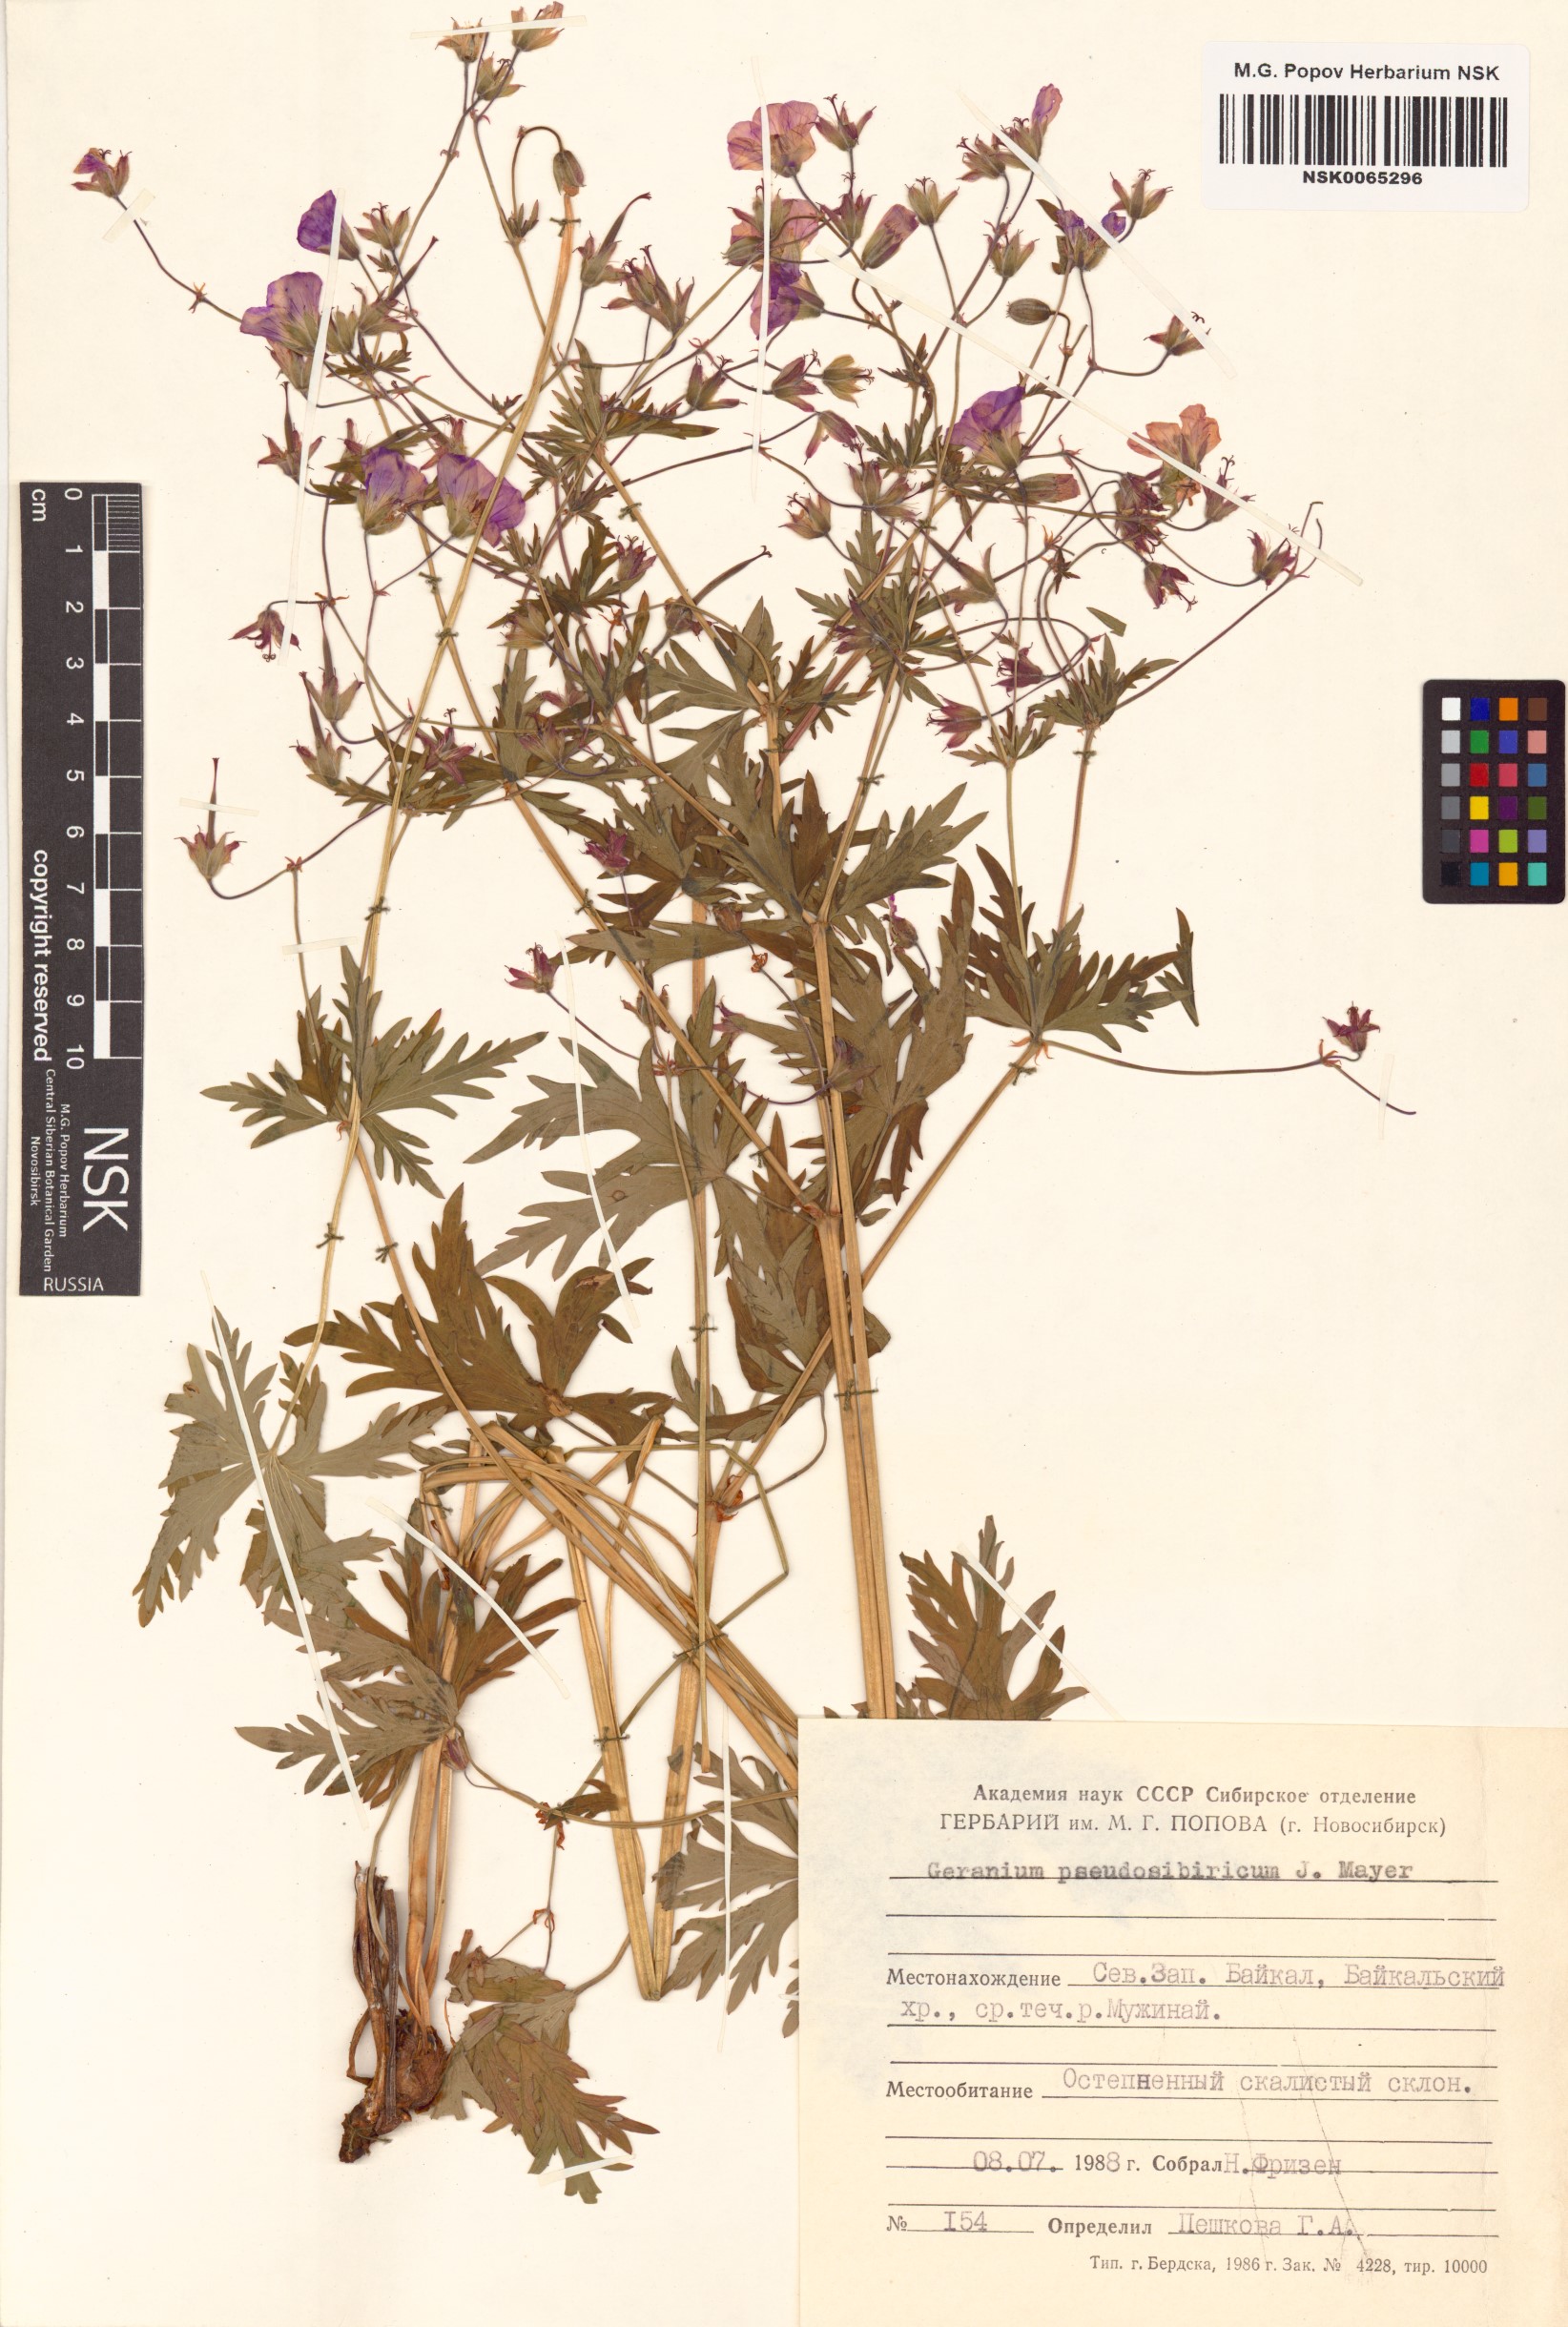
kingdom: Plantae
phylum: Tracheophyta
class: Magnoliopsida
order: Geraniales
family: Geraniaceae
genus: Geranium
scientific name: Geranium pseudosibiricum
